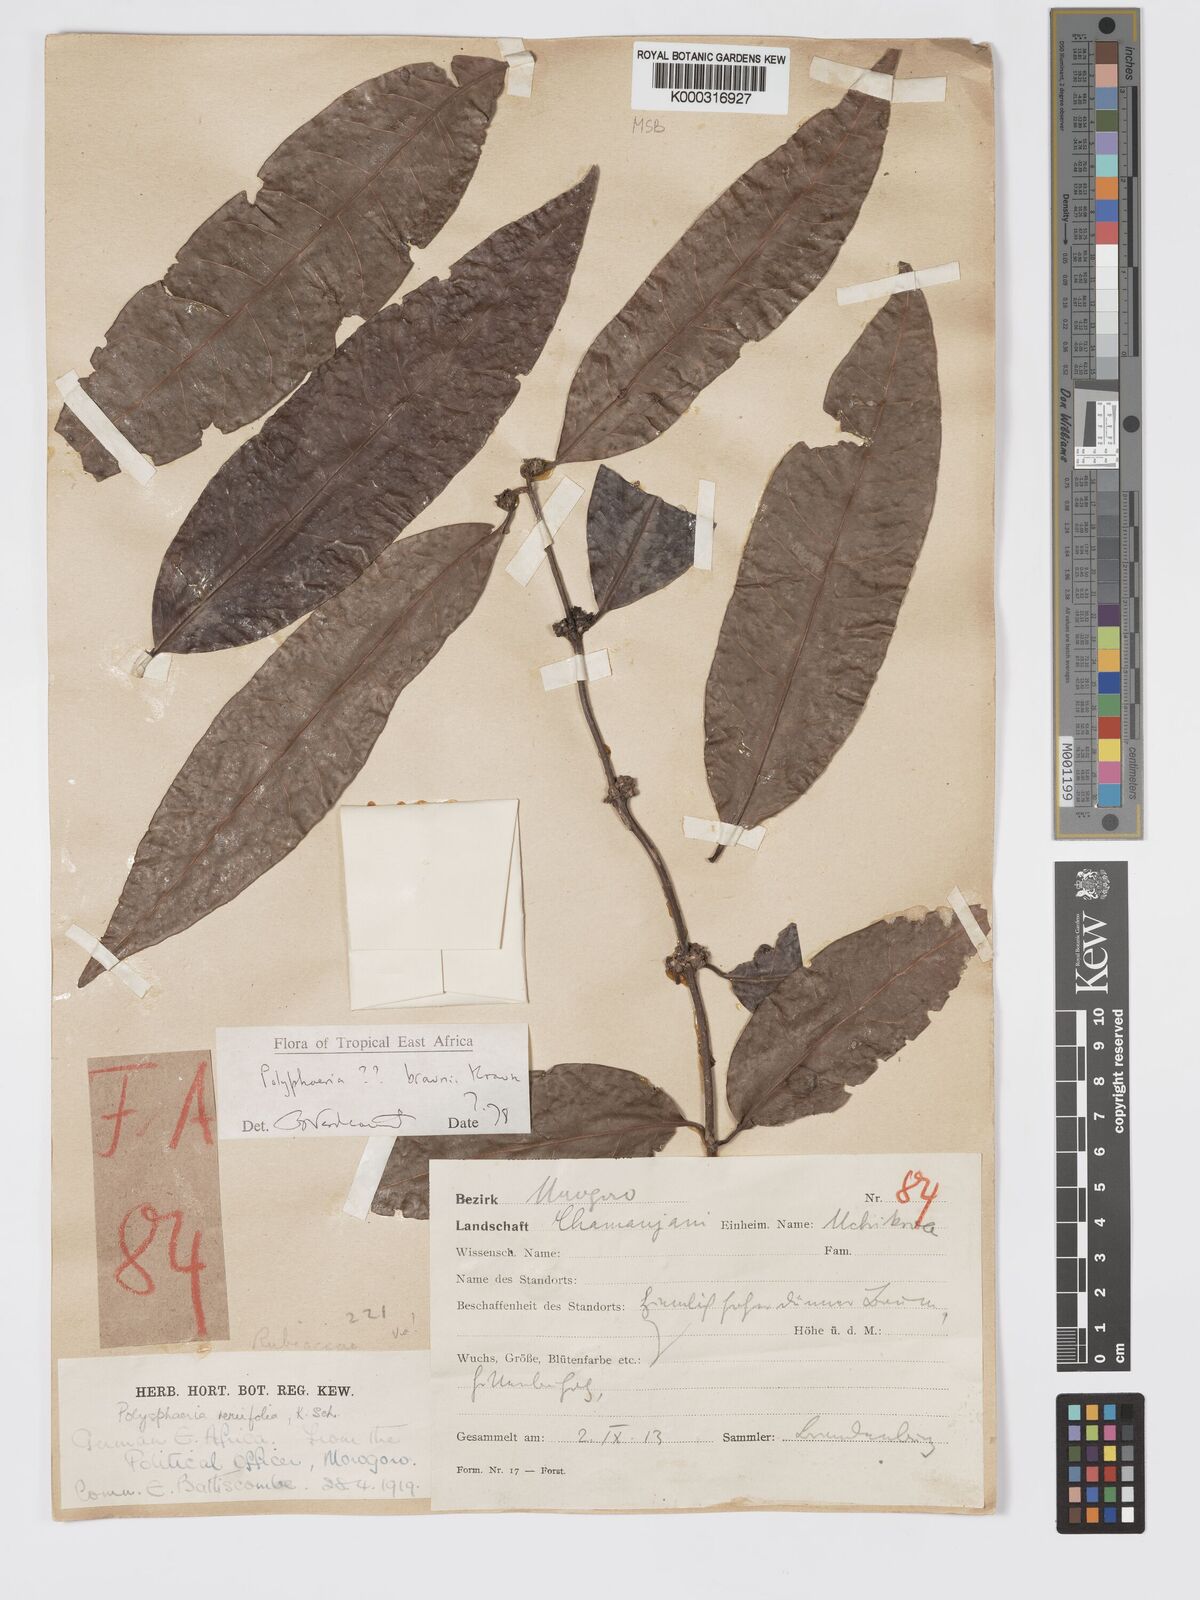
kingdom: Plantae
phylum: Tracheophyta
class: Magnoliopsida
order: Gentianales
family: Rubiaceae
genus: Polysphaeria
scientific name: Polysphaeria braunii
